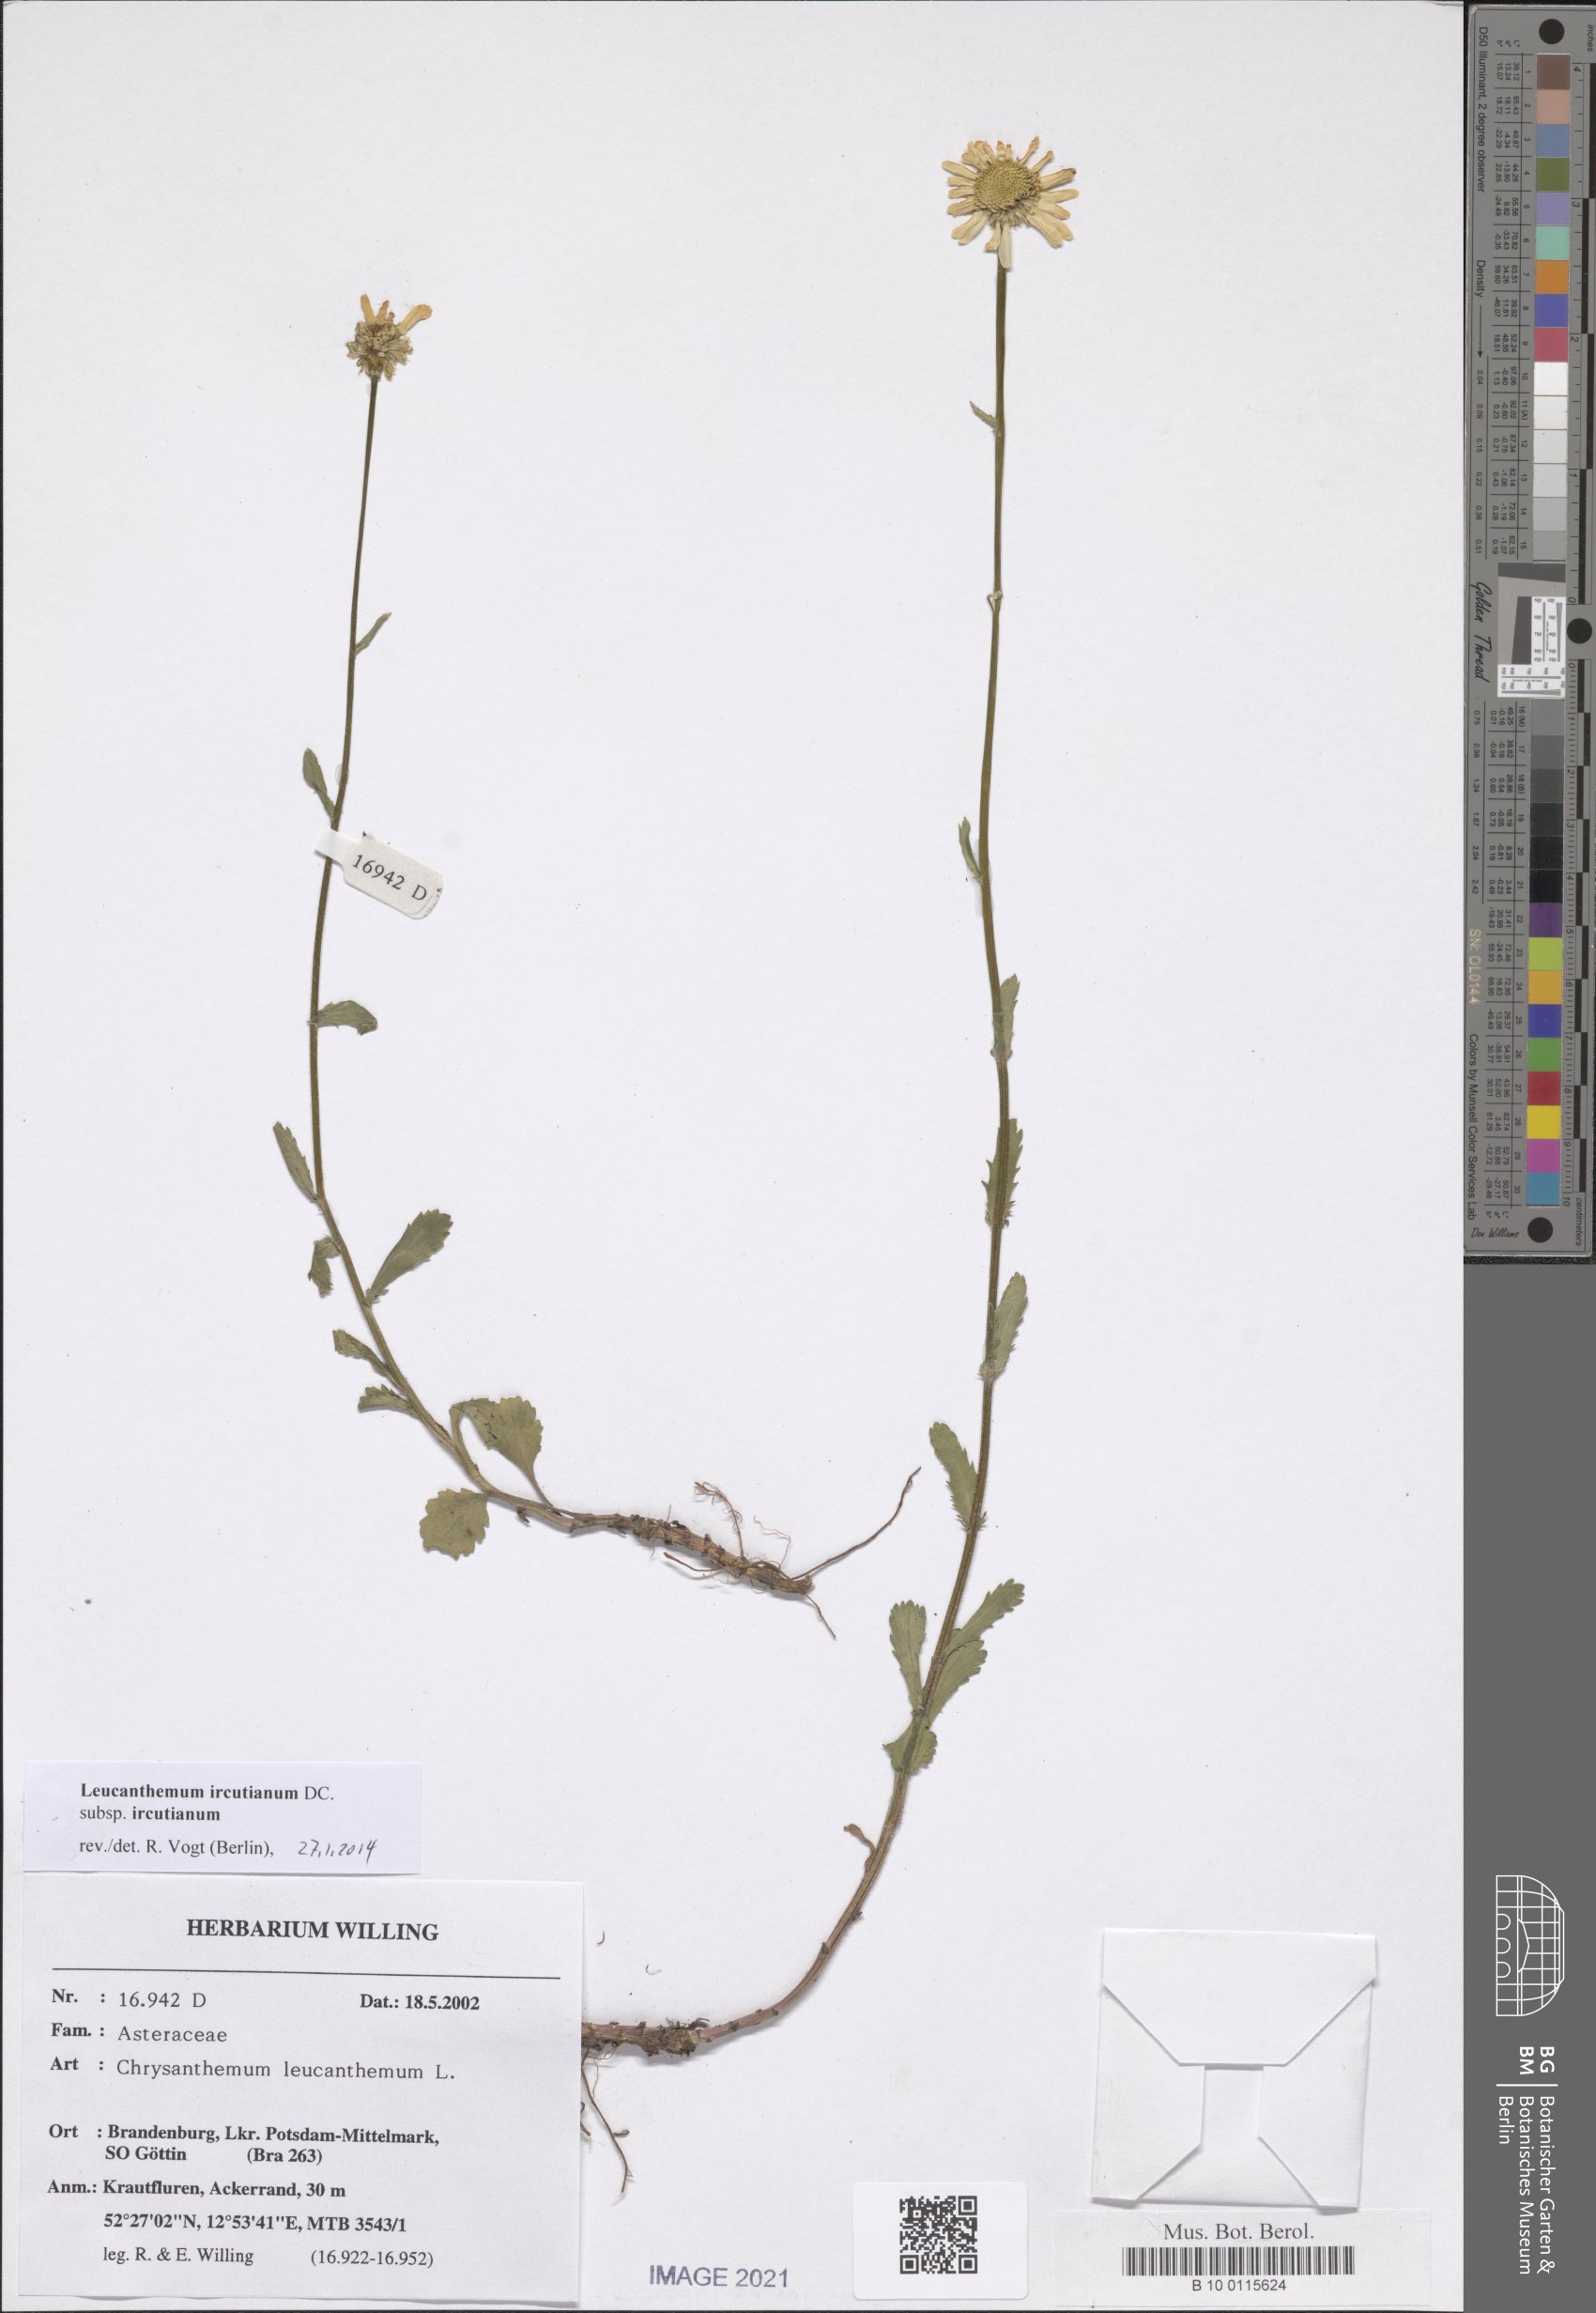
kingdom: Plantae
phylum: Tracheophyta
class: Magnoliopsida
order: Asterales
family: Asteraceae
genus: Leucanthemum
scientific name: Leucanthemum ircutianum
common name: Daisy
